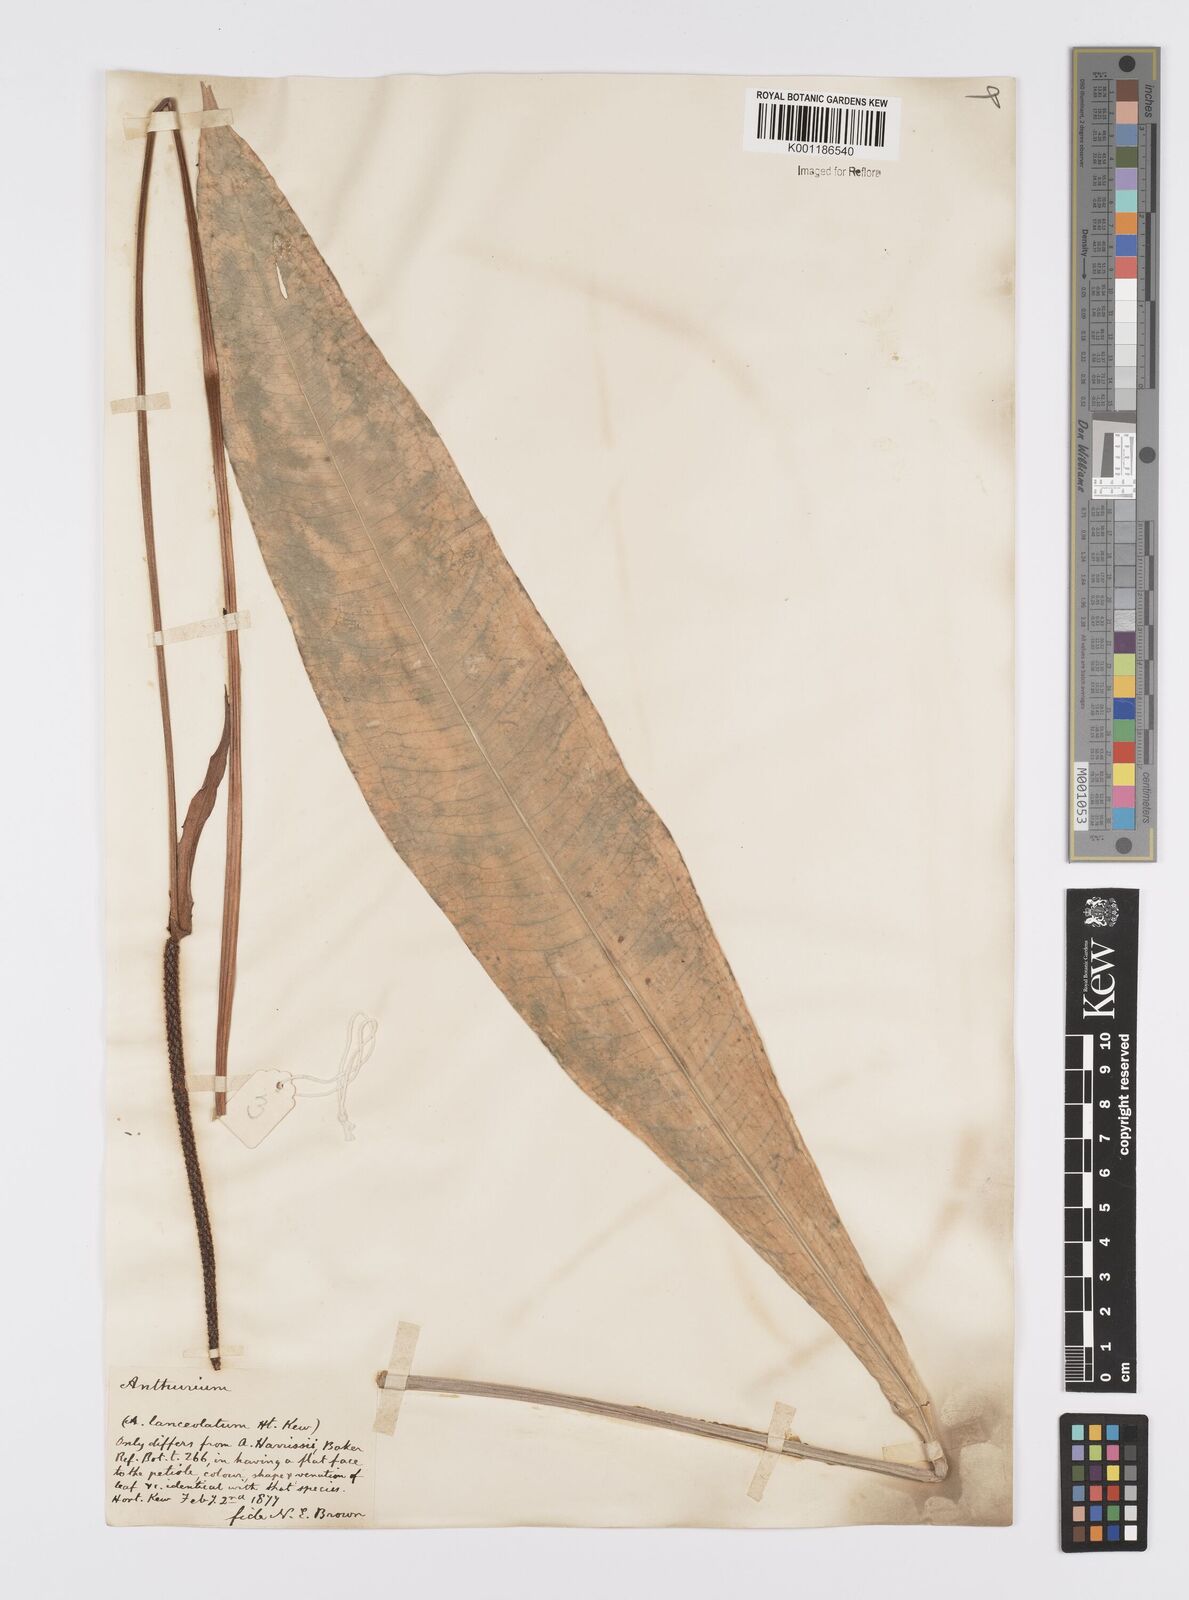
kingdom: Plantae
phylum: Tracheophyta
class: Liliopsida
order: Alismatales
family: Araceae
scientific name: Araceae
